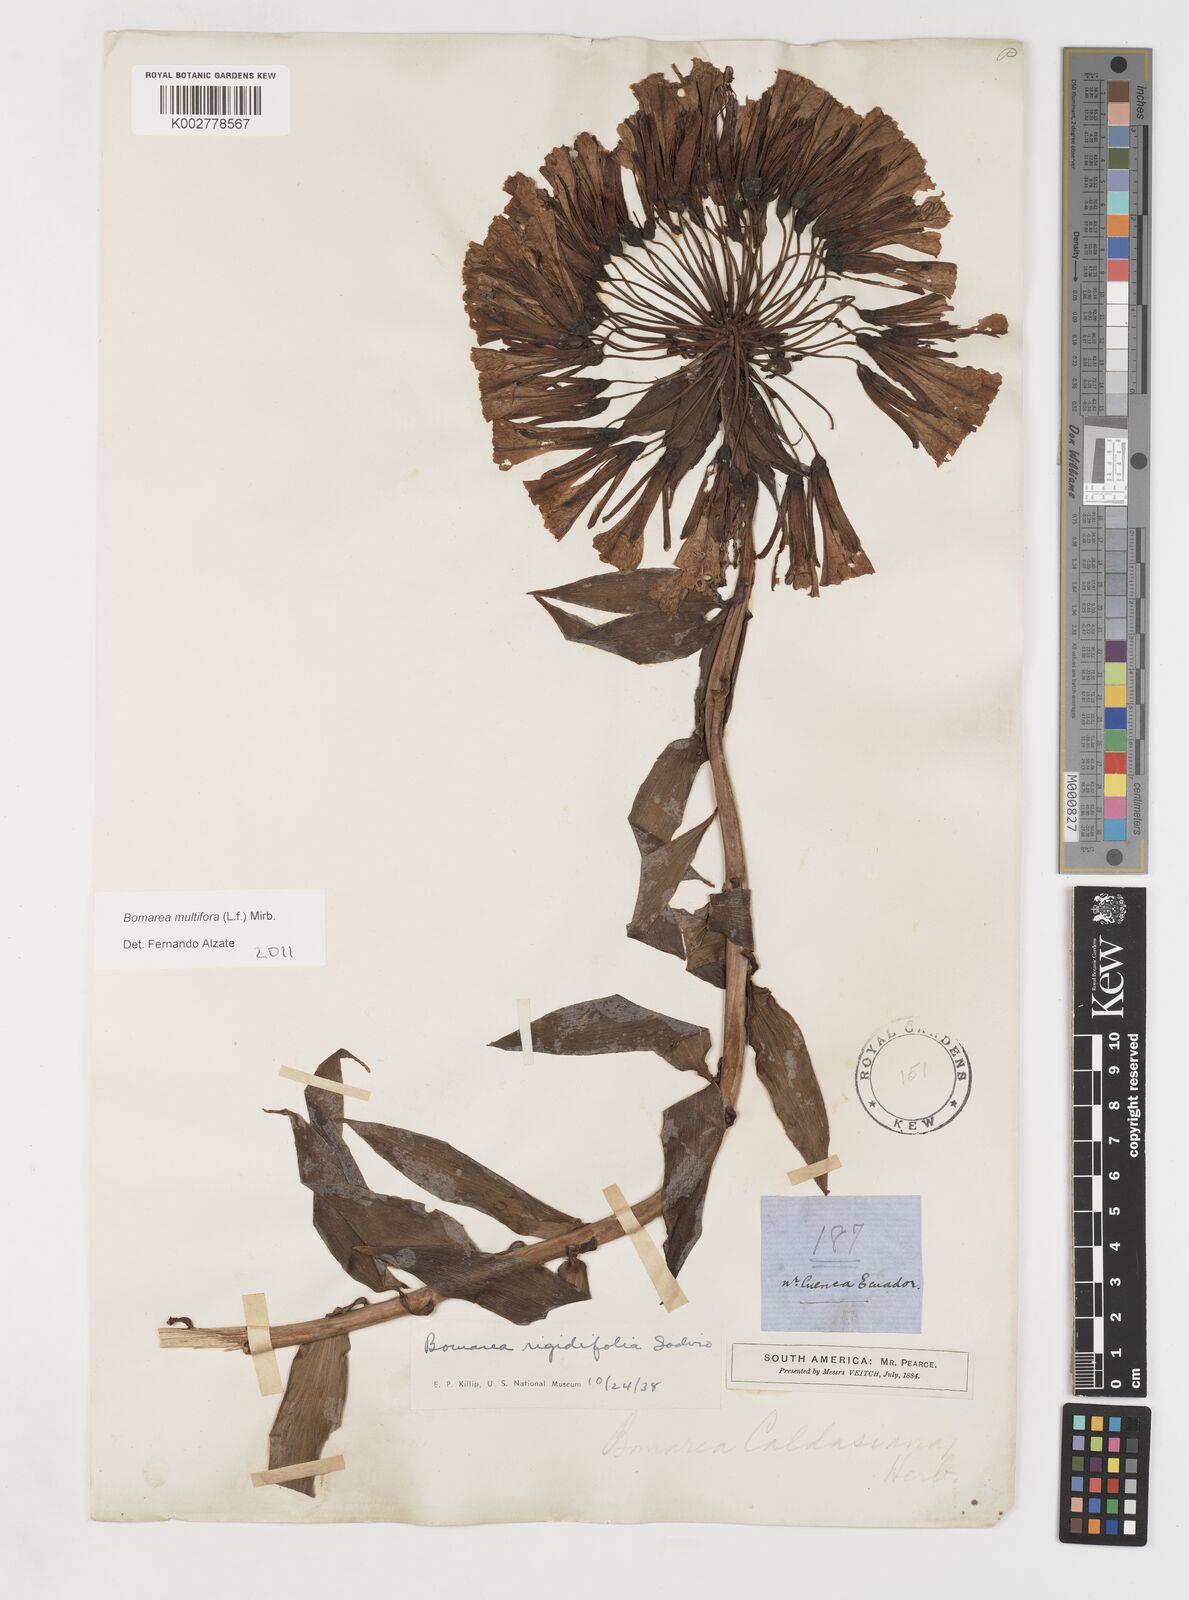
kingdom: Plantae
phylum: Tracheophyta
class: Liliopsida
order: Liliales
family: Alstroemeriaceae
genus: Bomarea
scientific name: Bomarea multiflora
